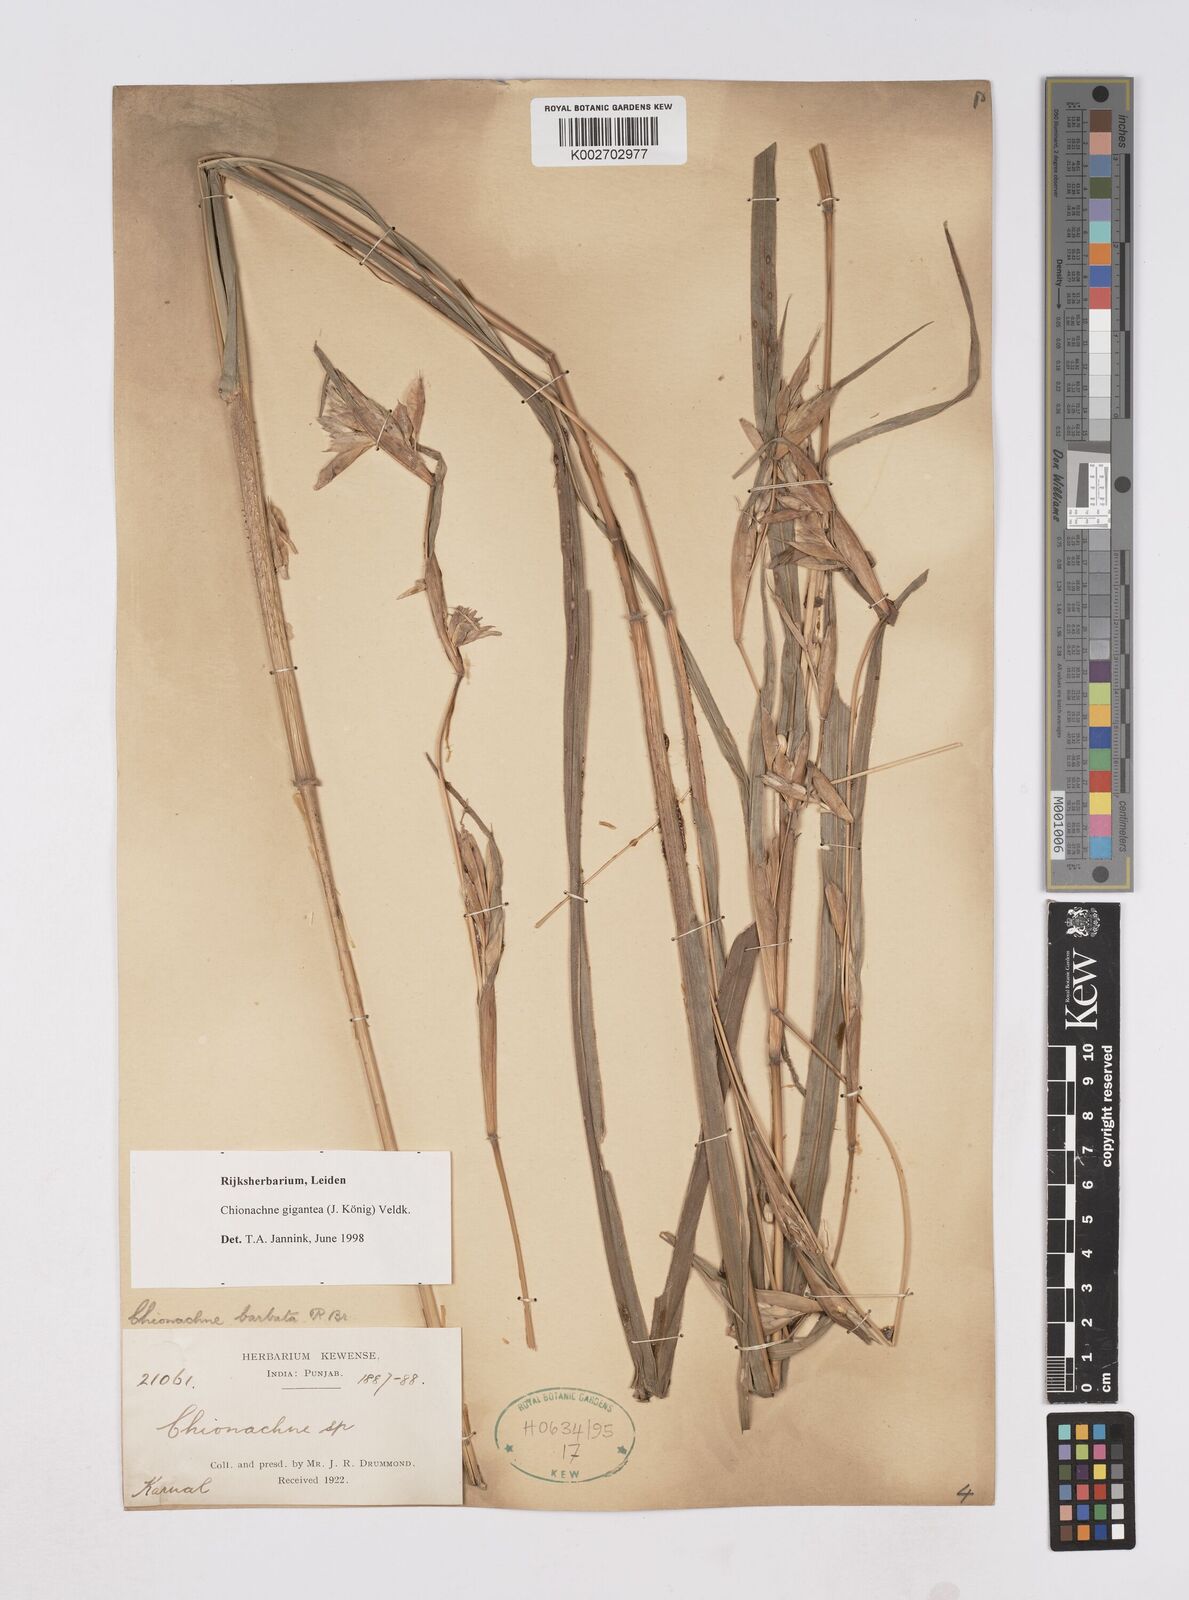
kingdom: Plantae
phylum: Tracheophyta
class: Liliopsida
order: Poales
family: Poaceae
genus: Polytoca
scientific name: Polytoca gigantea
